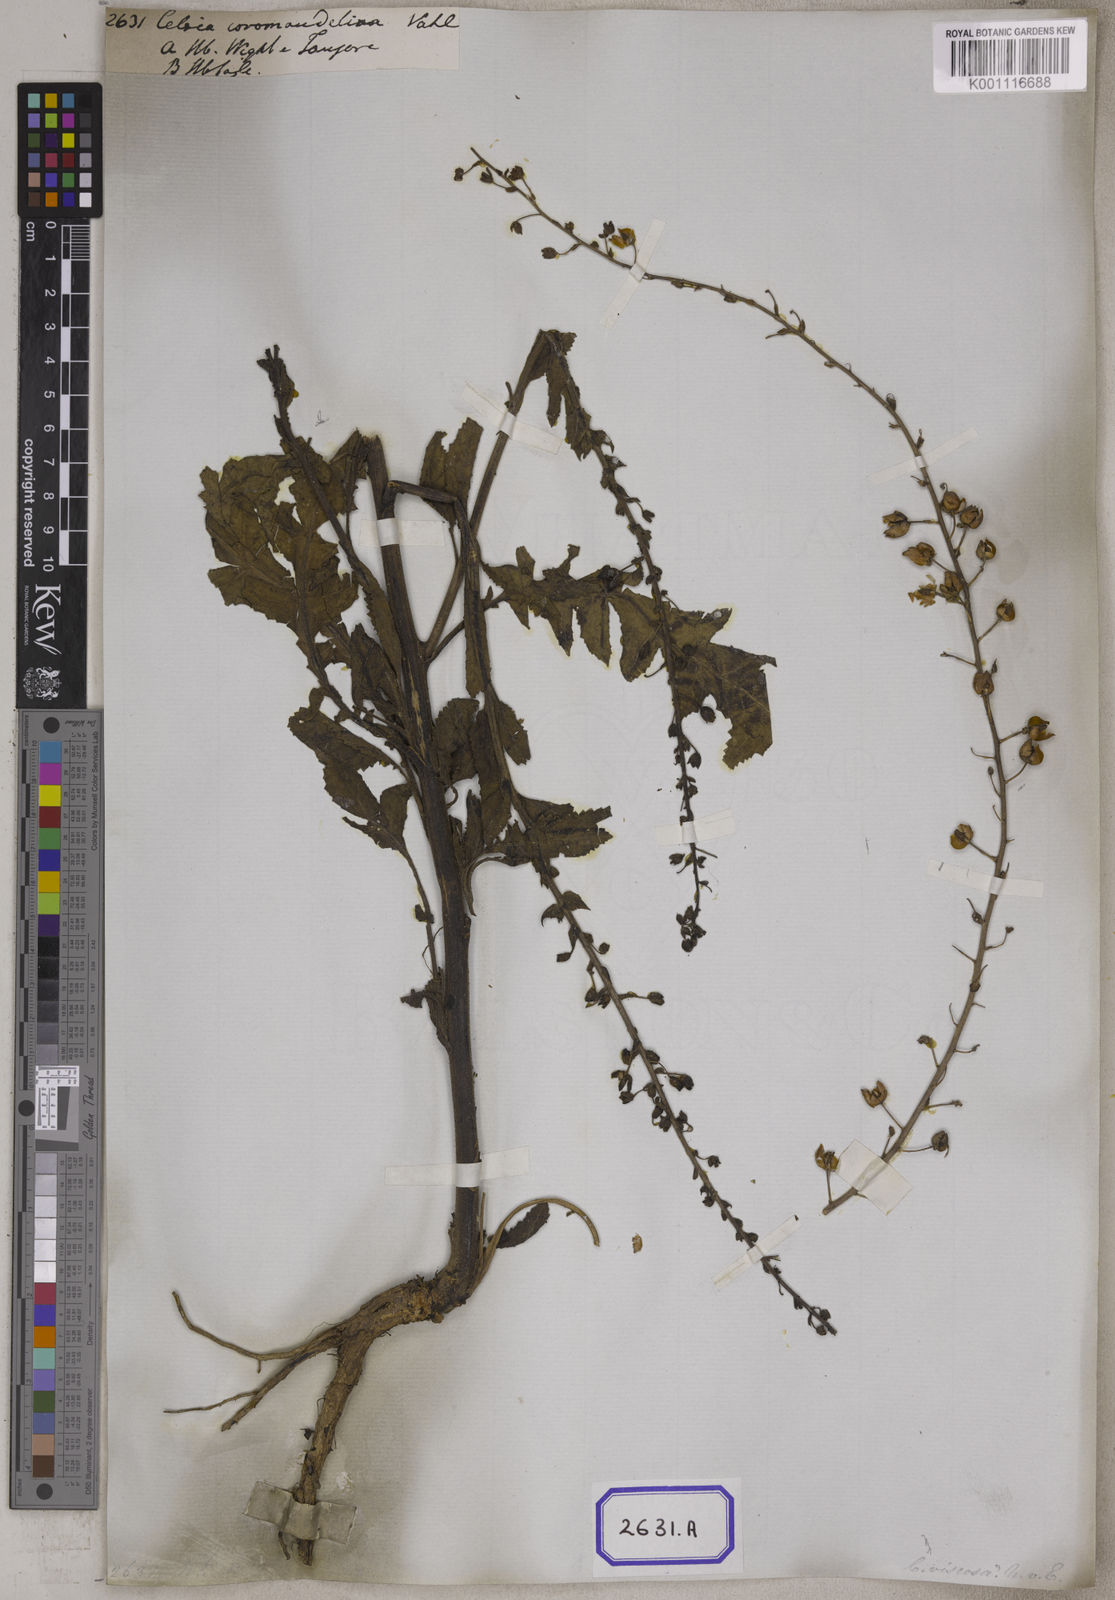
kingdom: Animalia
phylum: Arthropoda
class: Insecta
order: Lepidoptera
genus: Celsia
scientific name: Celsia
